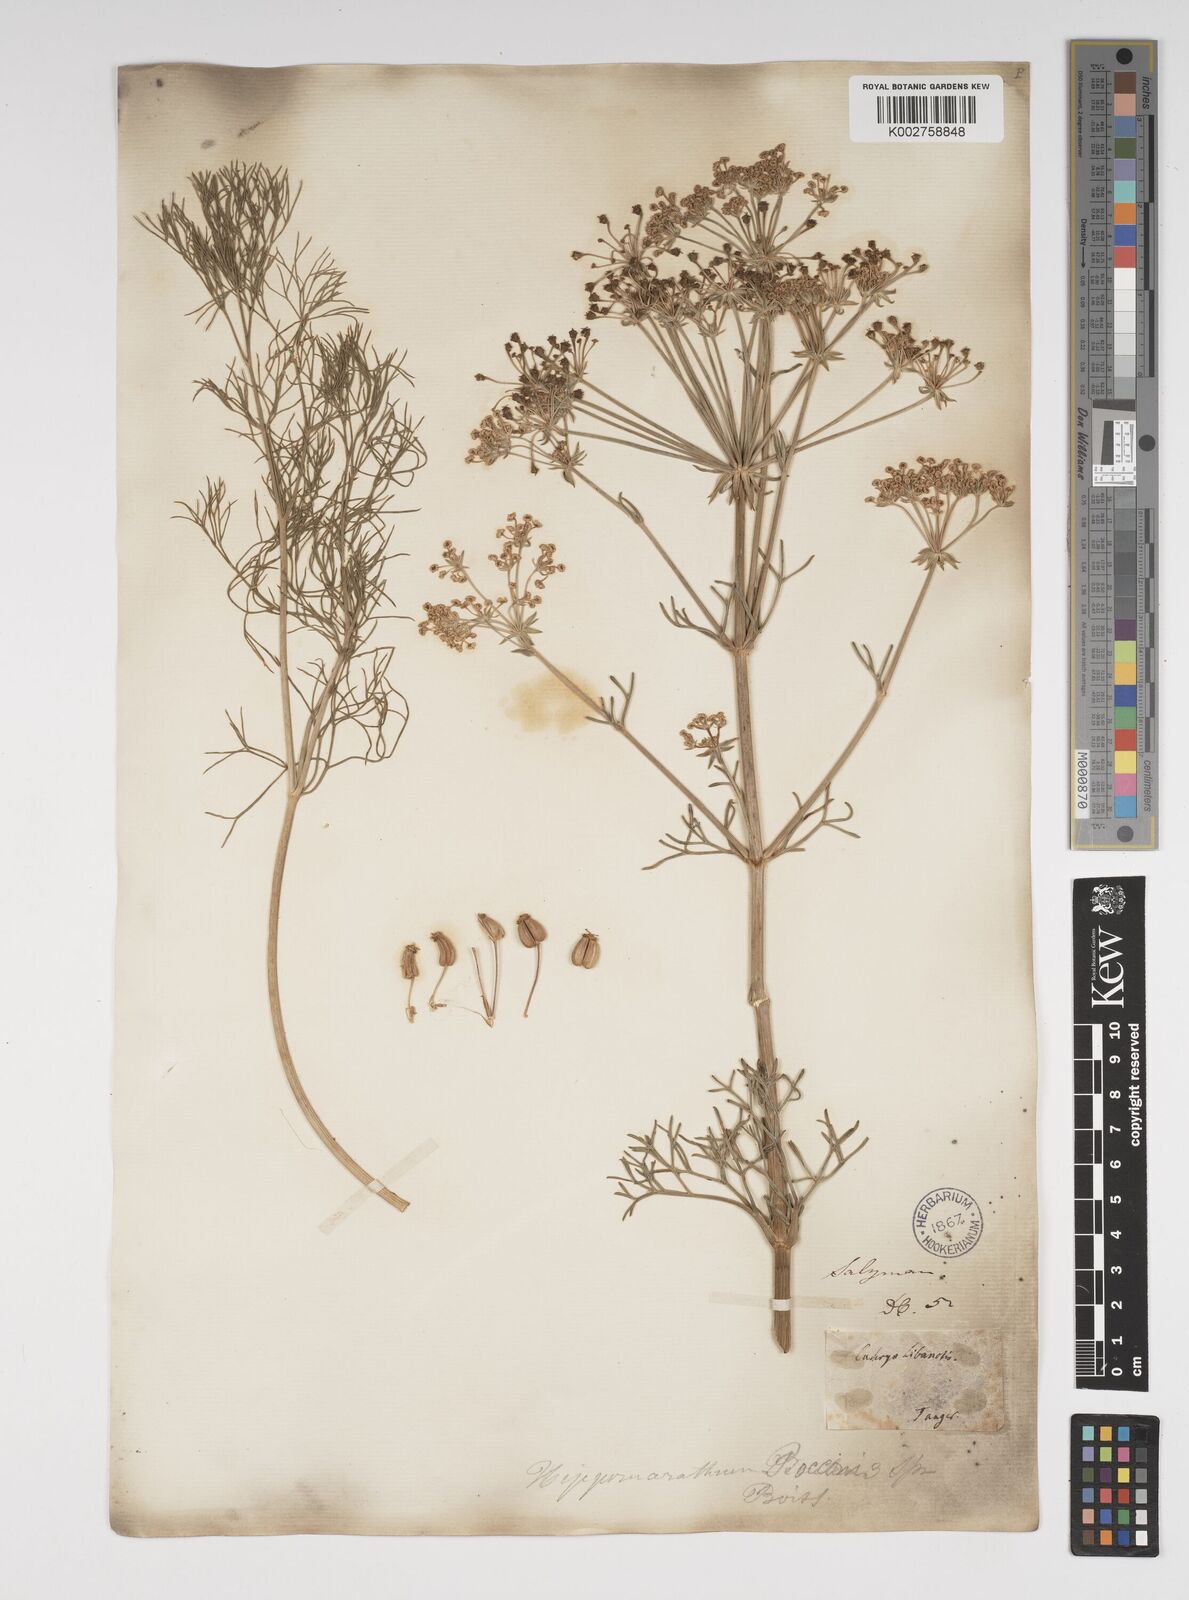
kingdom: Plantae
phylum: Tracheophyta
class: Magnoliopsida
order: Apiales
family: Apiaceae
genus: Cachrys
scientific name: Cachrys libanotis
